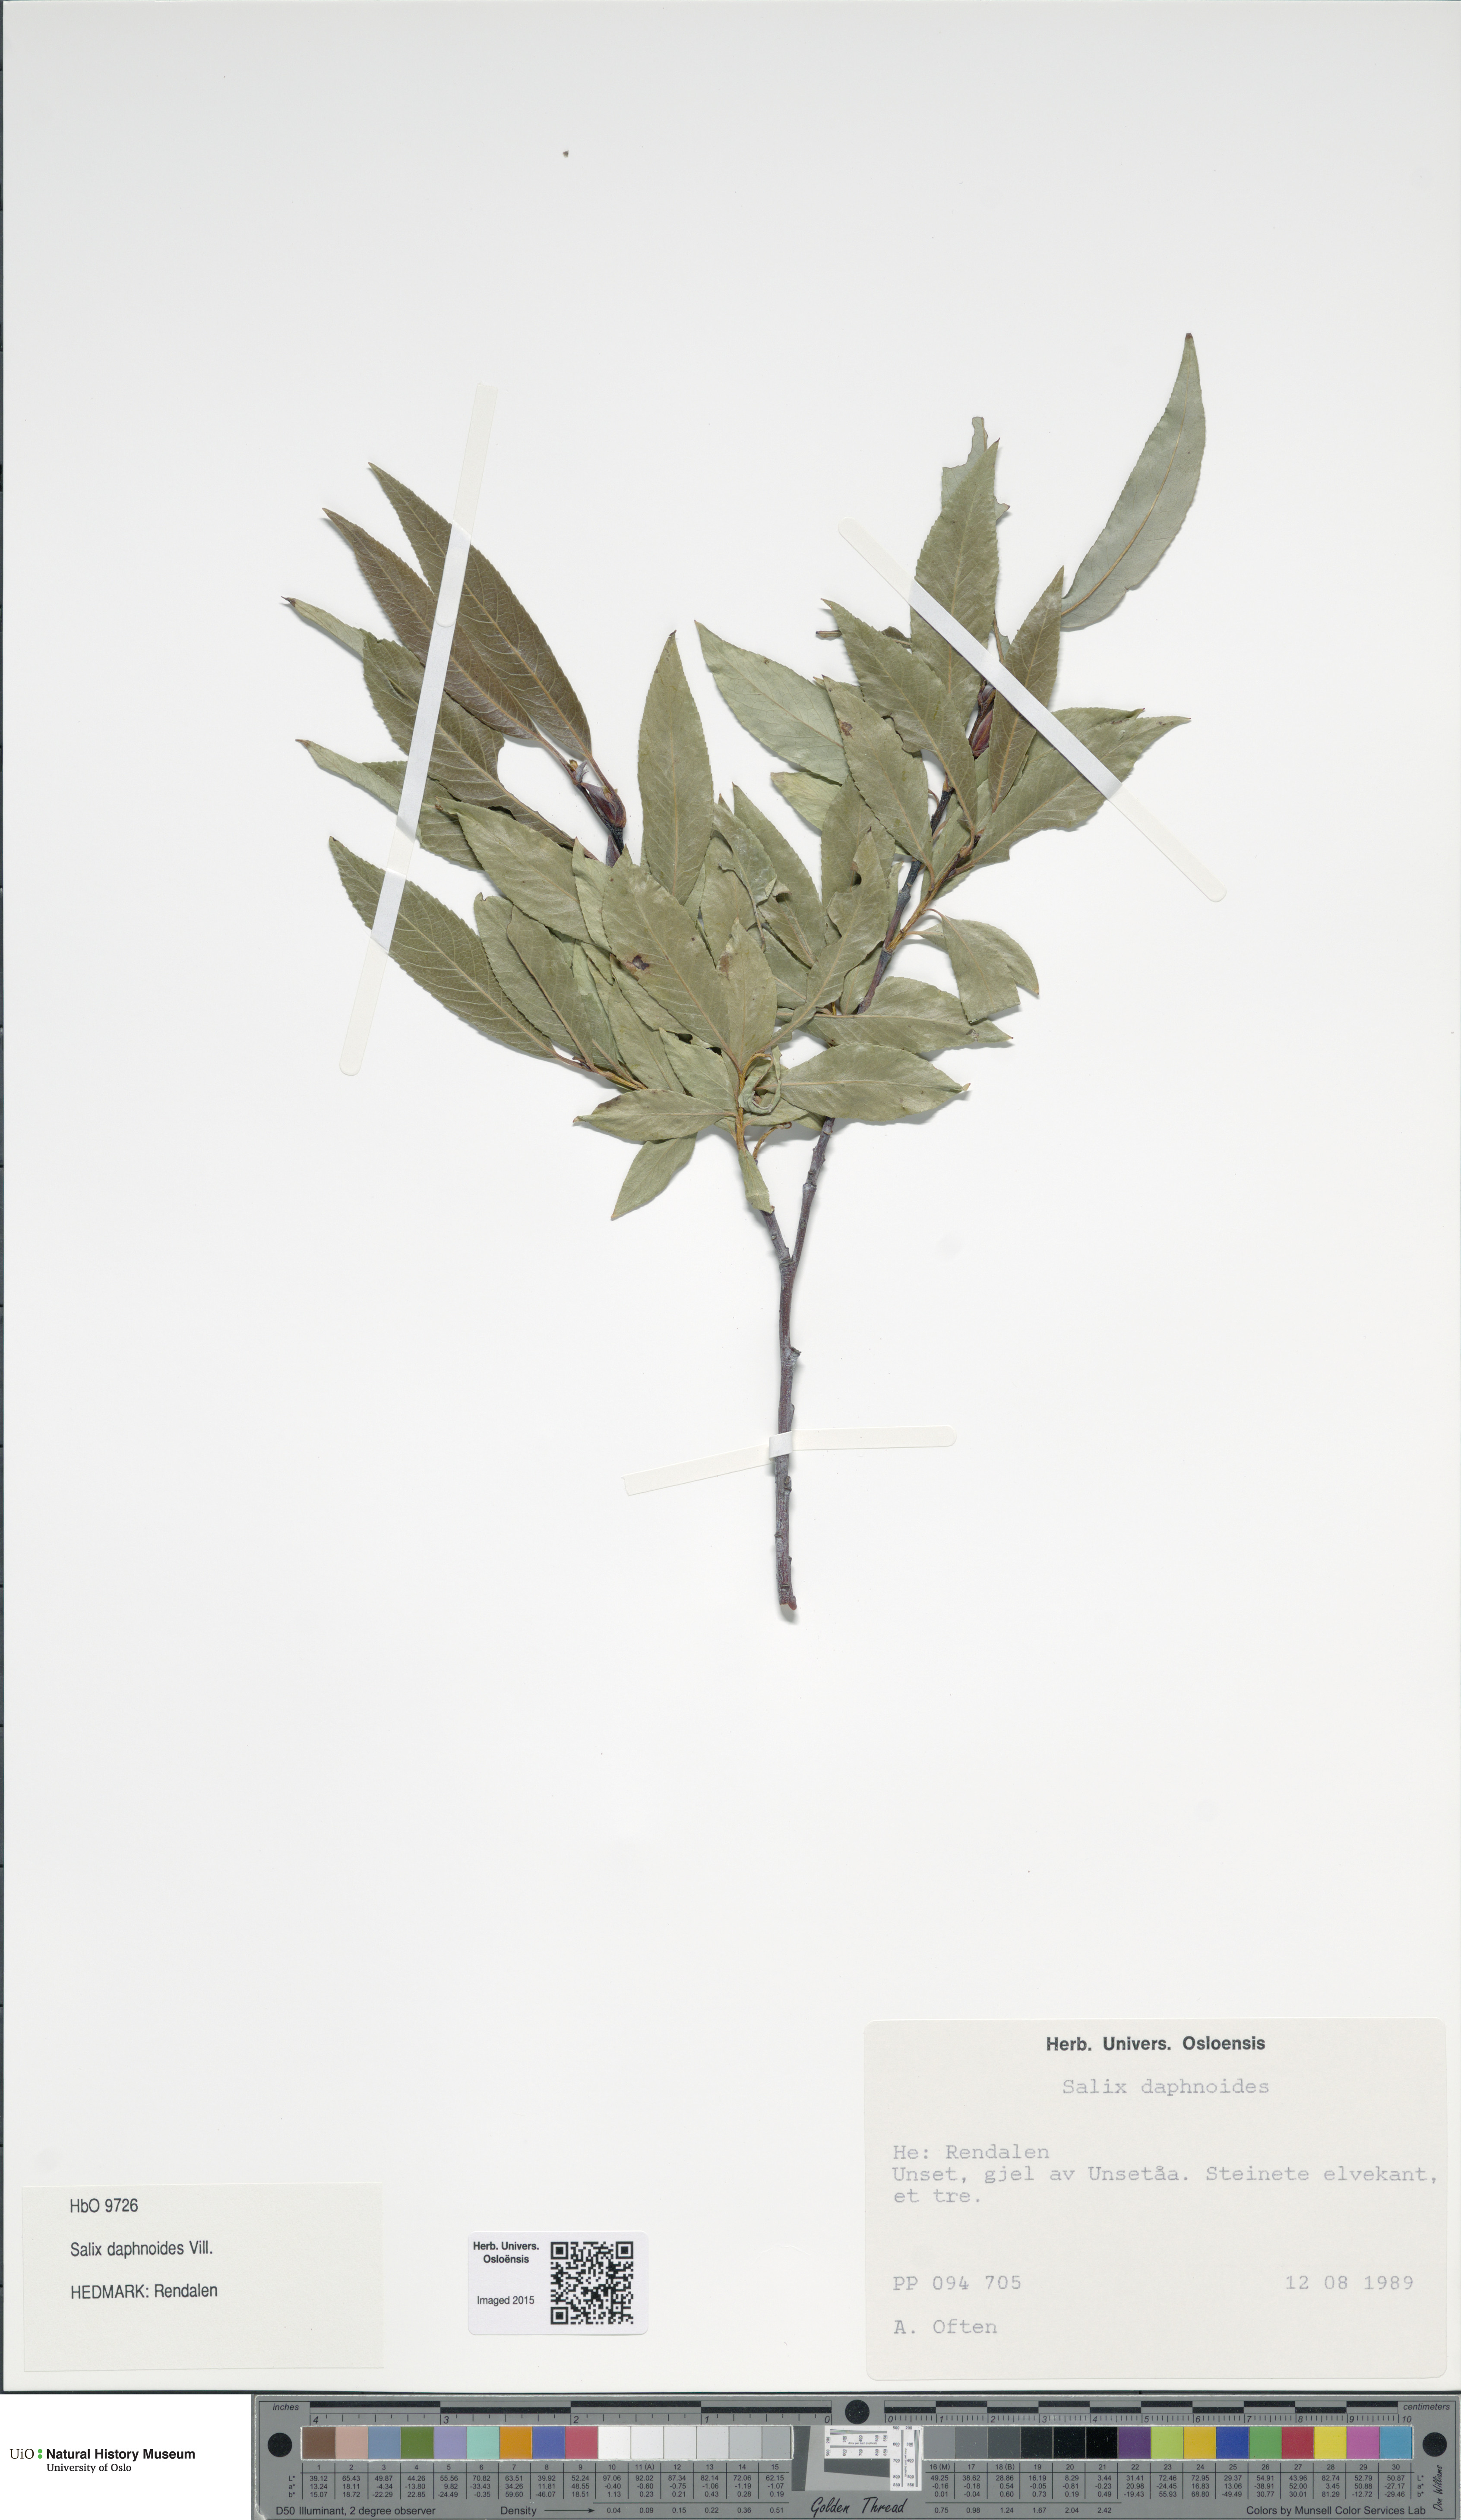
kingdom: Plantae
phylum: Tracheophyta
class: Magnoliopsida
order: Malpighiales
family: Salicaceae
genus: Salix
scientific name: Salix daphnoides
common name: European violet-willow
